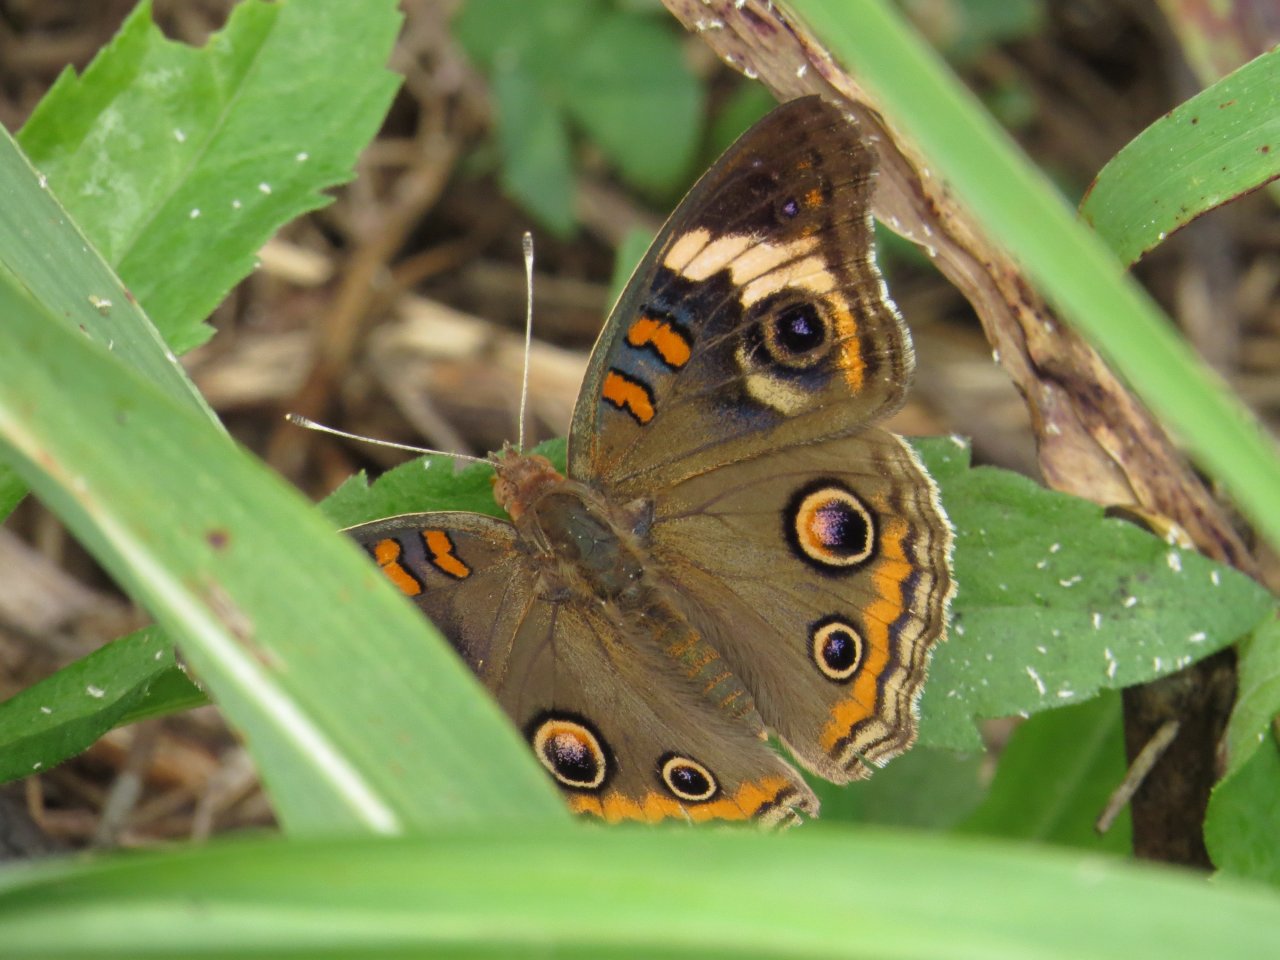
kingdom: Animalia
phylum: Arthropoda
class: Insecta
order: Lepidoptera
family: Nymphalidae
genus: Junonia
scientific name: Junonia coenia
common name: Common Buckeye
